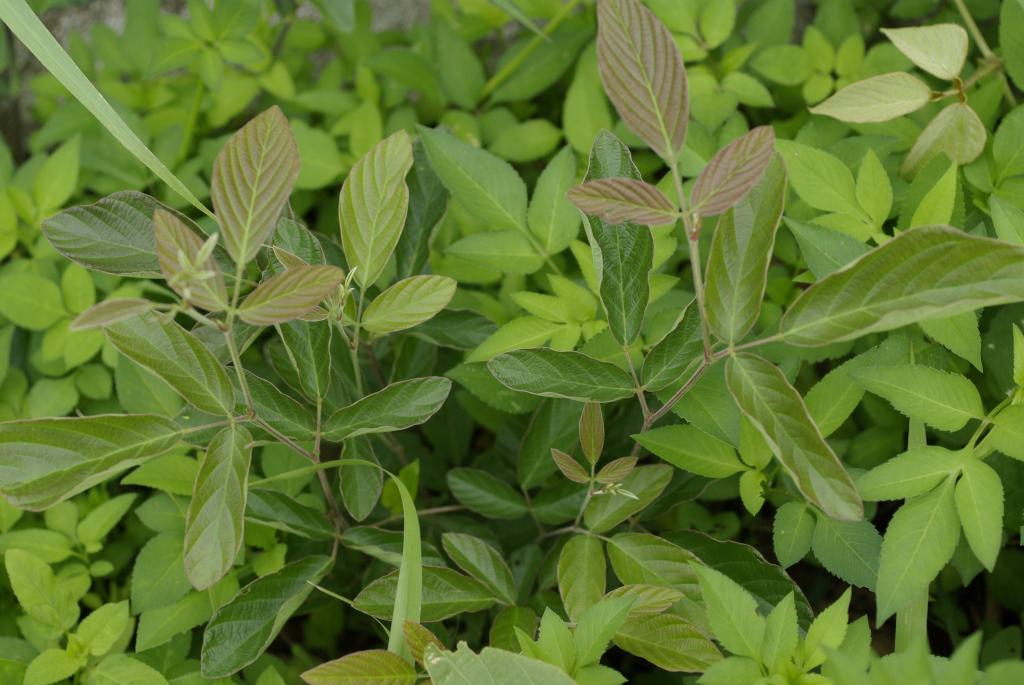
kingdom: Plantae
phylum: Tracheophyta
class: Magnoliopsida
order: Fabales
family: Fabaceae
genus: Phyllodium
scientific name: Phyllodium pulchellum
